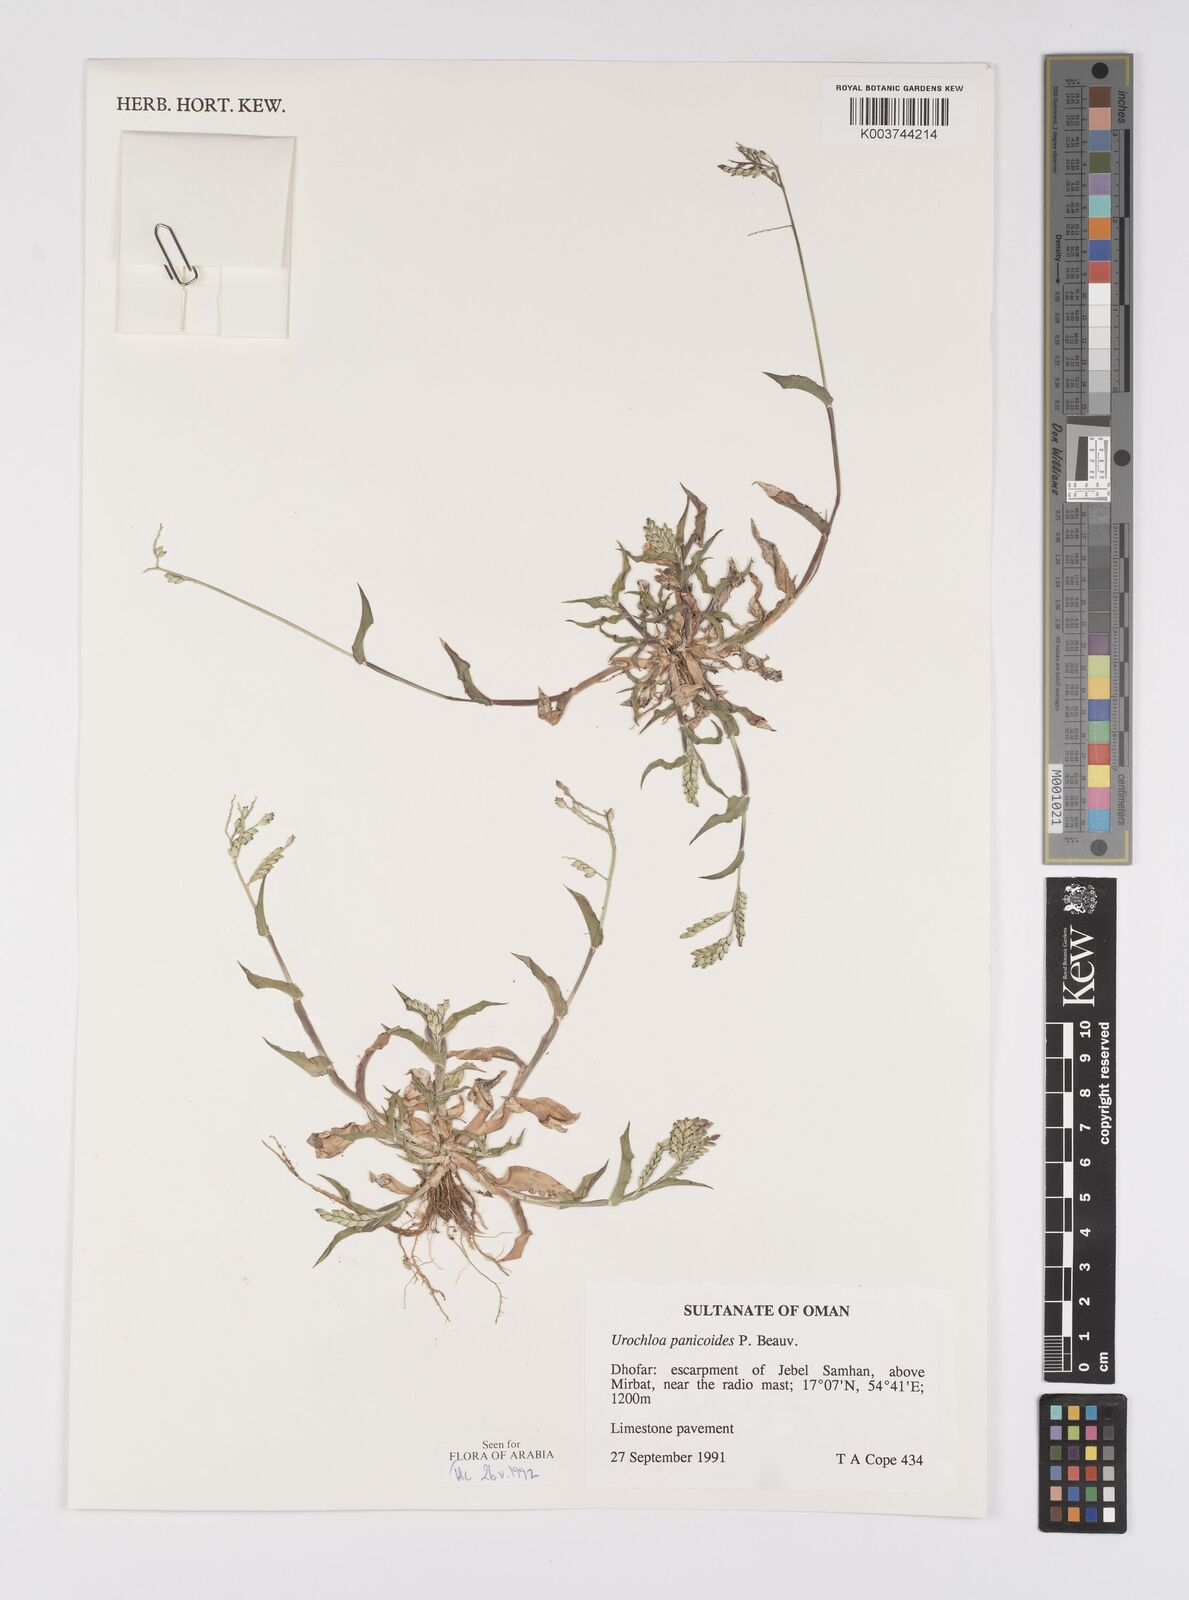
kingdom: Plantae
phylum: Tracheophyta
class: Liliopsida
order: Poales
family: Poaceae
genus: Urochloa
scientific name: Urochloa panicoides
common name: Sharp-flowered signal-grass
